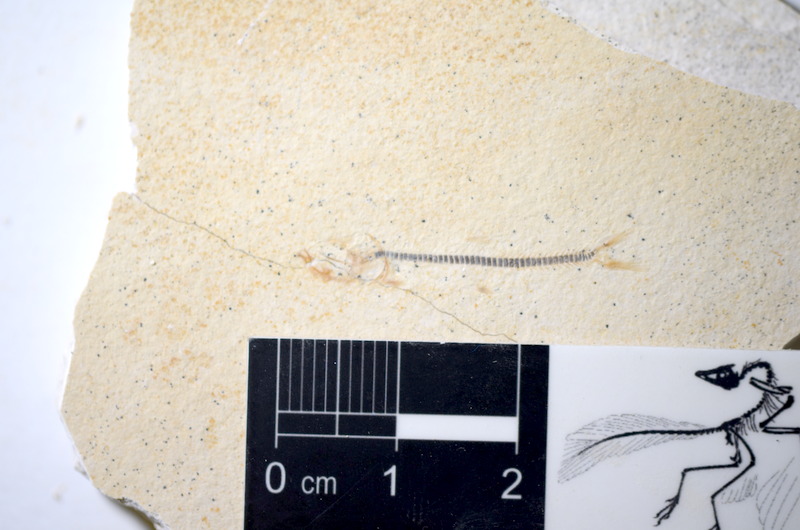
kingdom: Animalia
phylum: Chordata
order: Salmoniformes
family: Orthogonikleithridae
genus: Orthogonikleithrus
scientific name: Orthogonikleithrus hoelli
